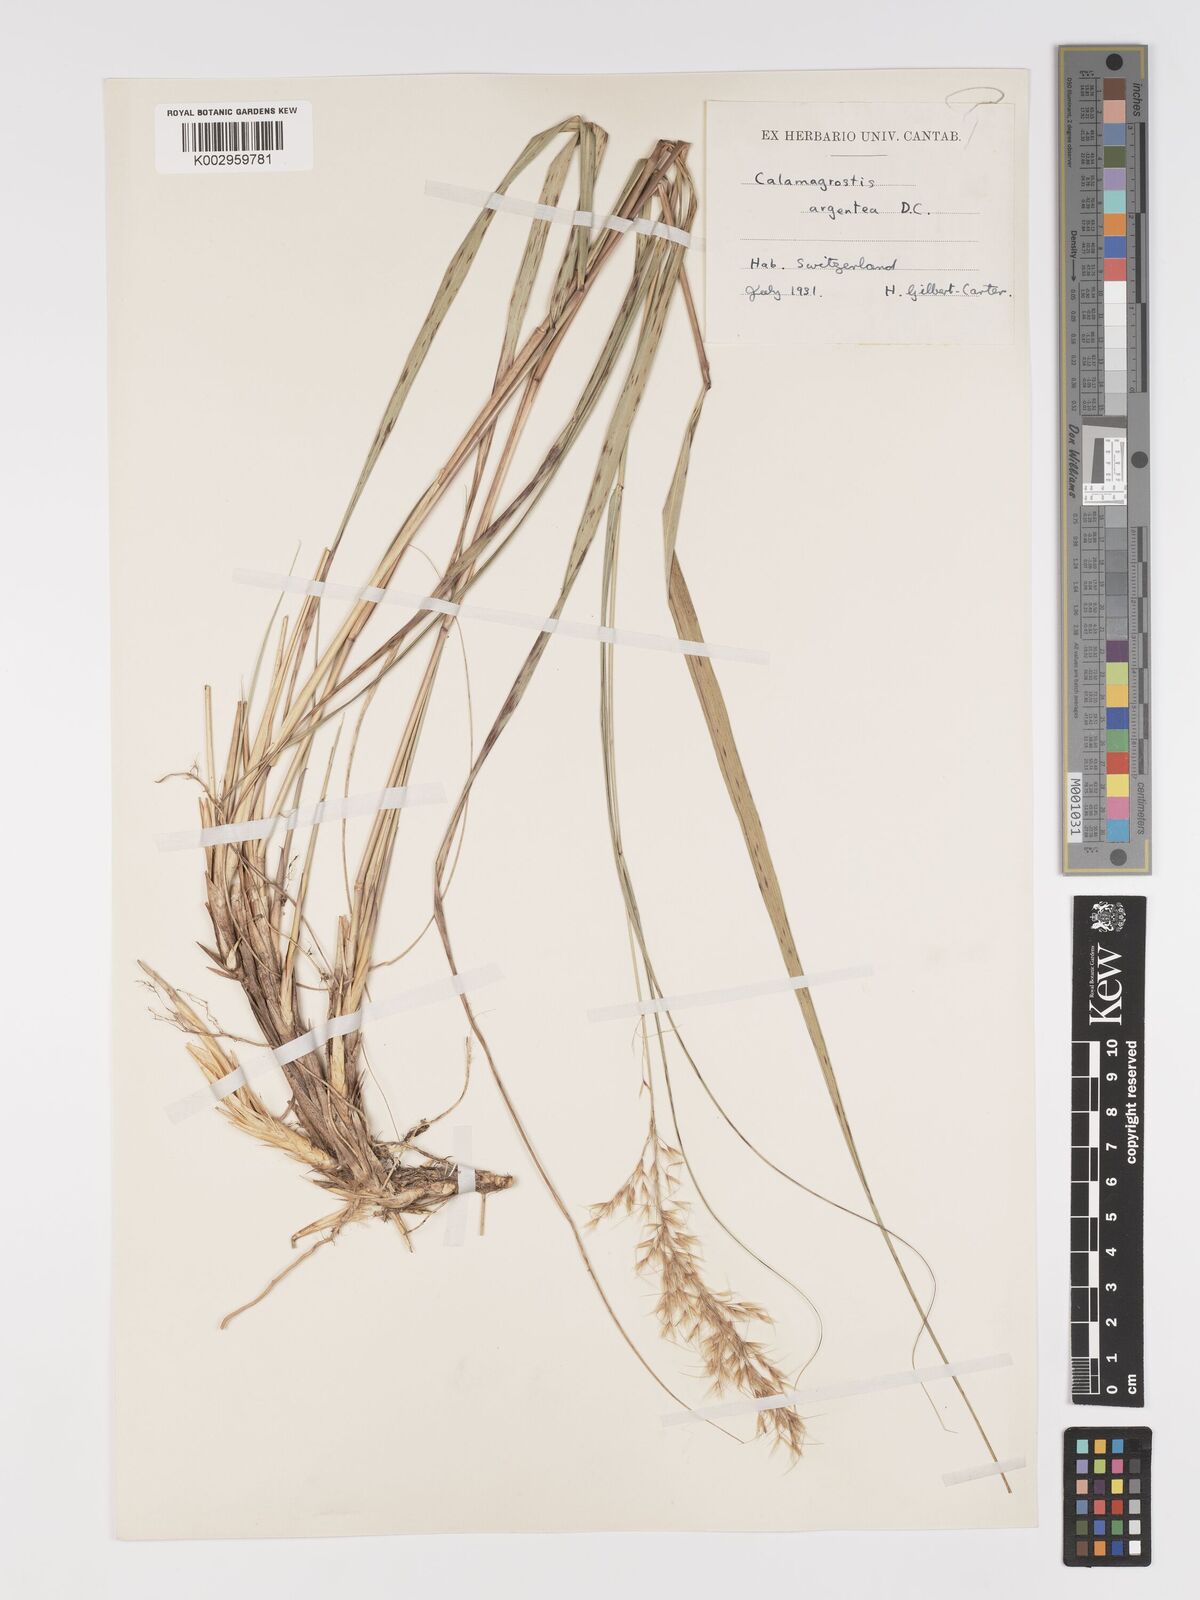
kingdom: Plantae
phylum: Tracheophyta
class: Liliopsida
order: Poales
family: Poaceae
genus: Achnatherum
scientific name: Achnatherum calamagrostis
